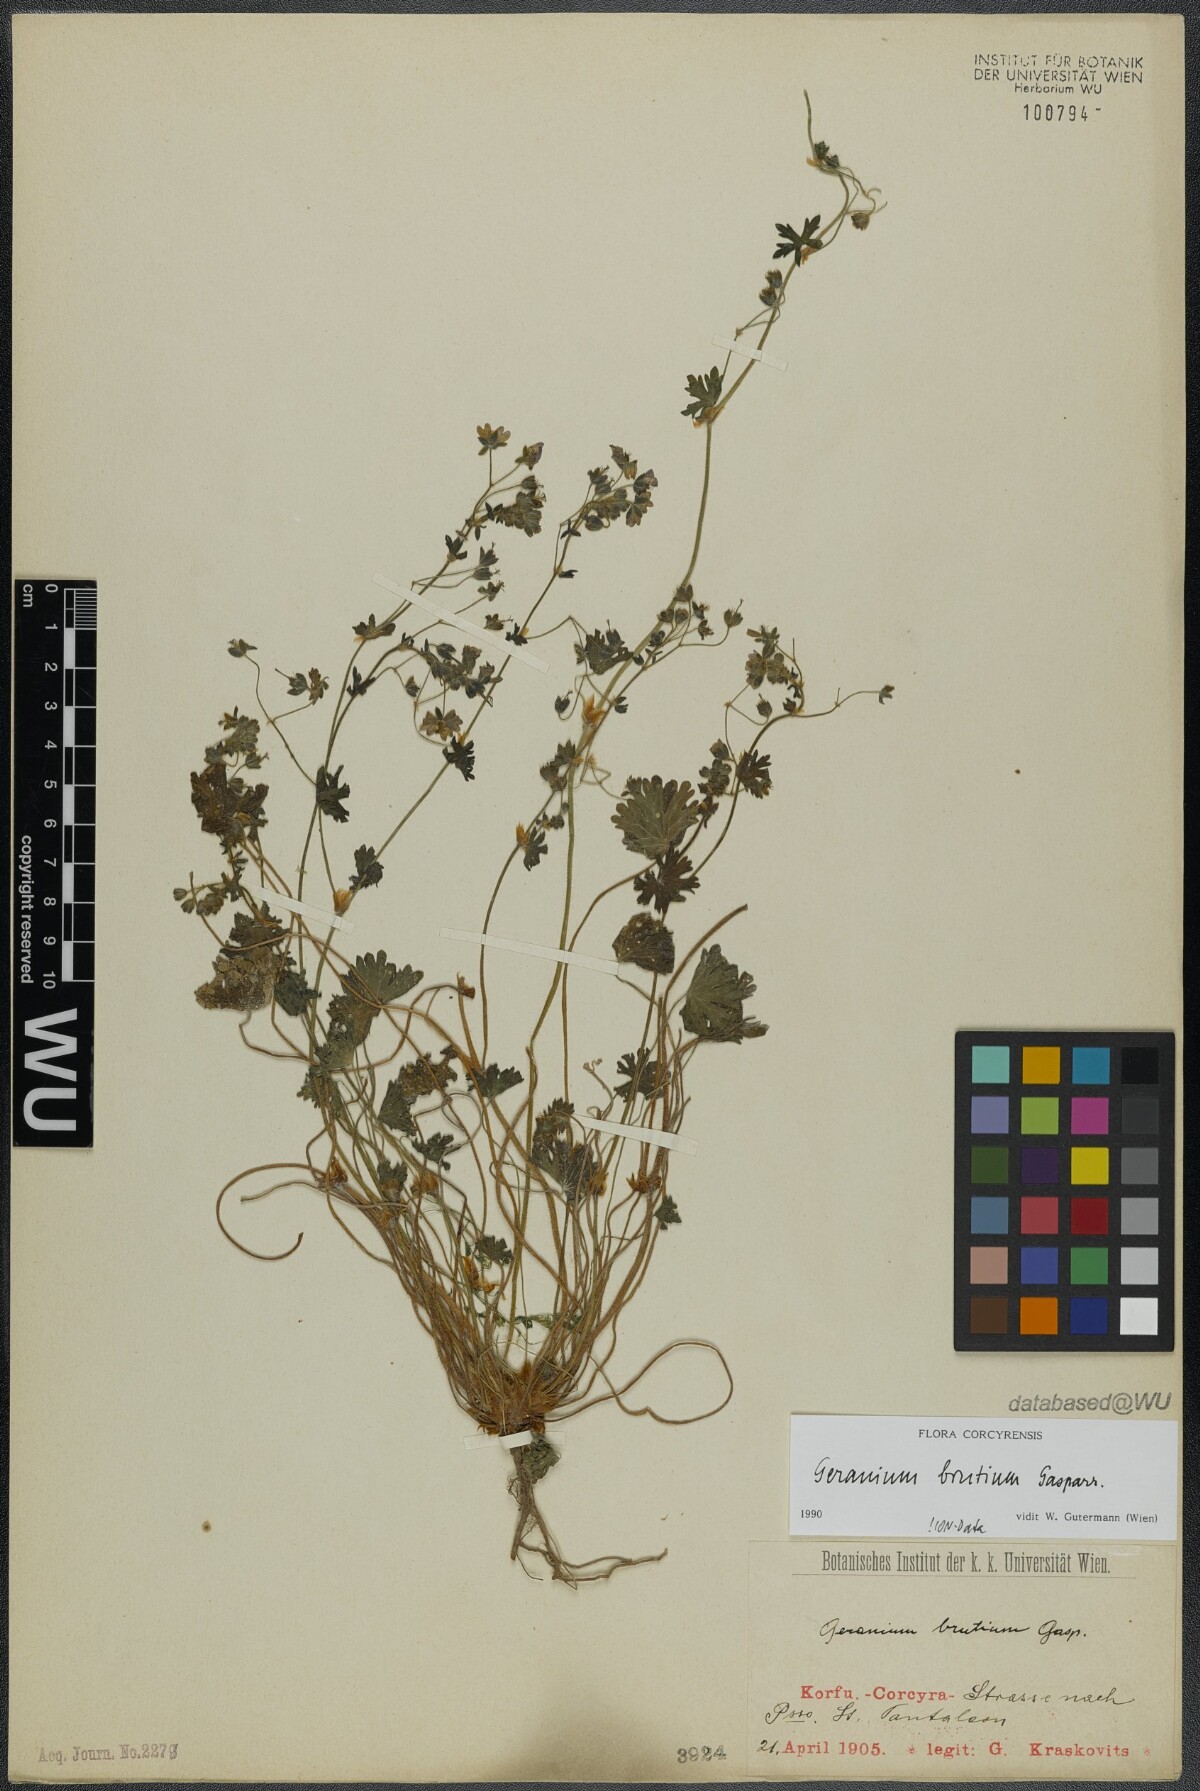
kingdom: Plantae
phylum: Tracheophyta
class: Magnoliopsida
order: Geraniales
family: Geraniaceae
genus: Geranium
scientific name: Geranium molle
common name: Dove's-foot crane's-bill
